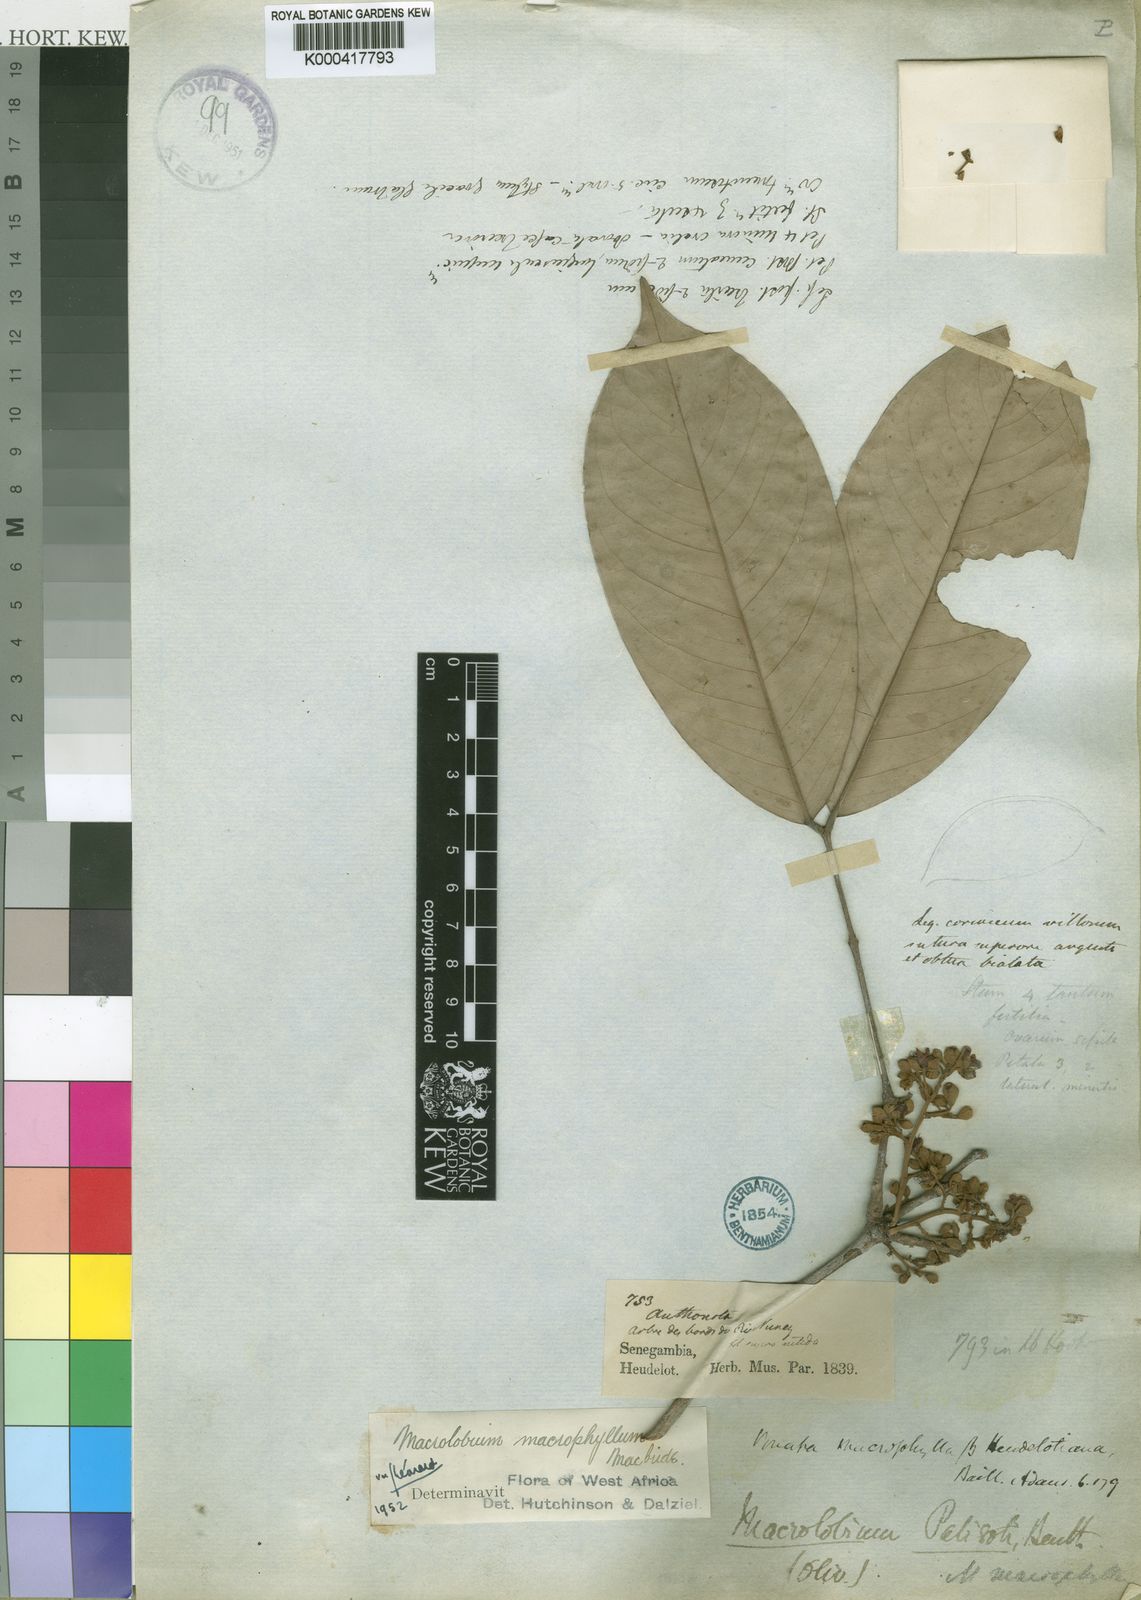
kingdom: Plantae
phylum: Tracheophyta
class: Magnoliopsida
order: Fabales
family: Fabaceae
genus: Anthonotha
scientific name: Anthonotha crassifolia
